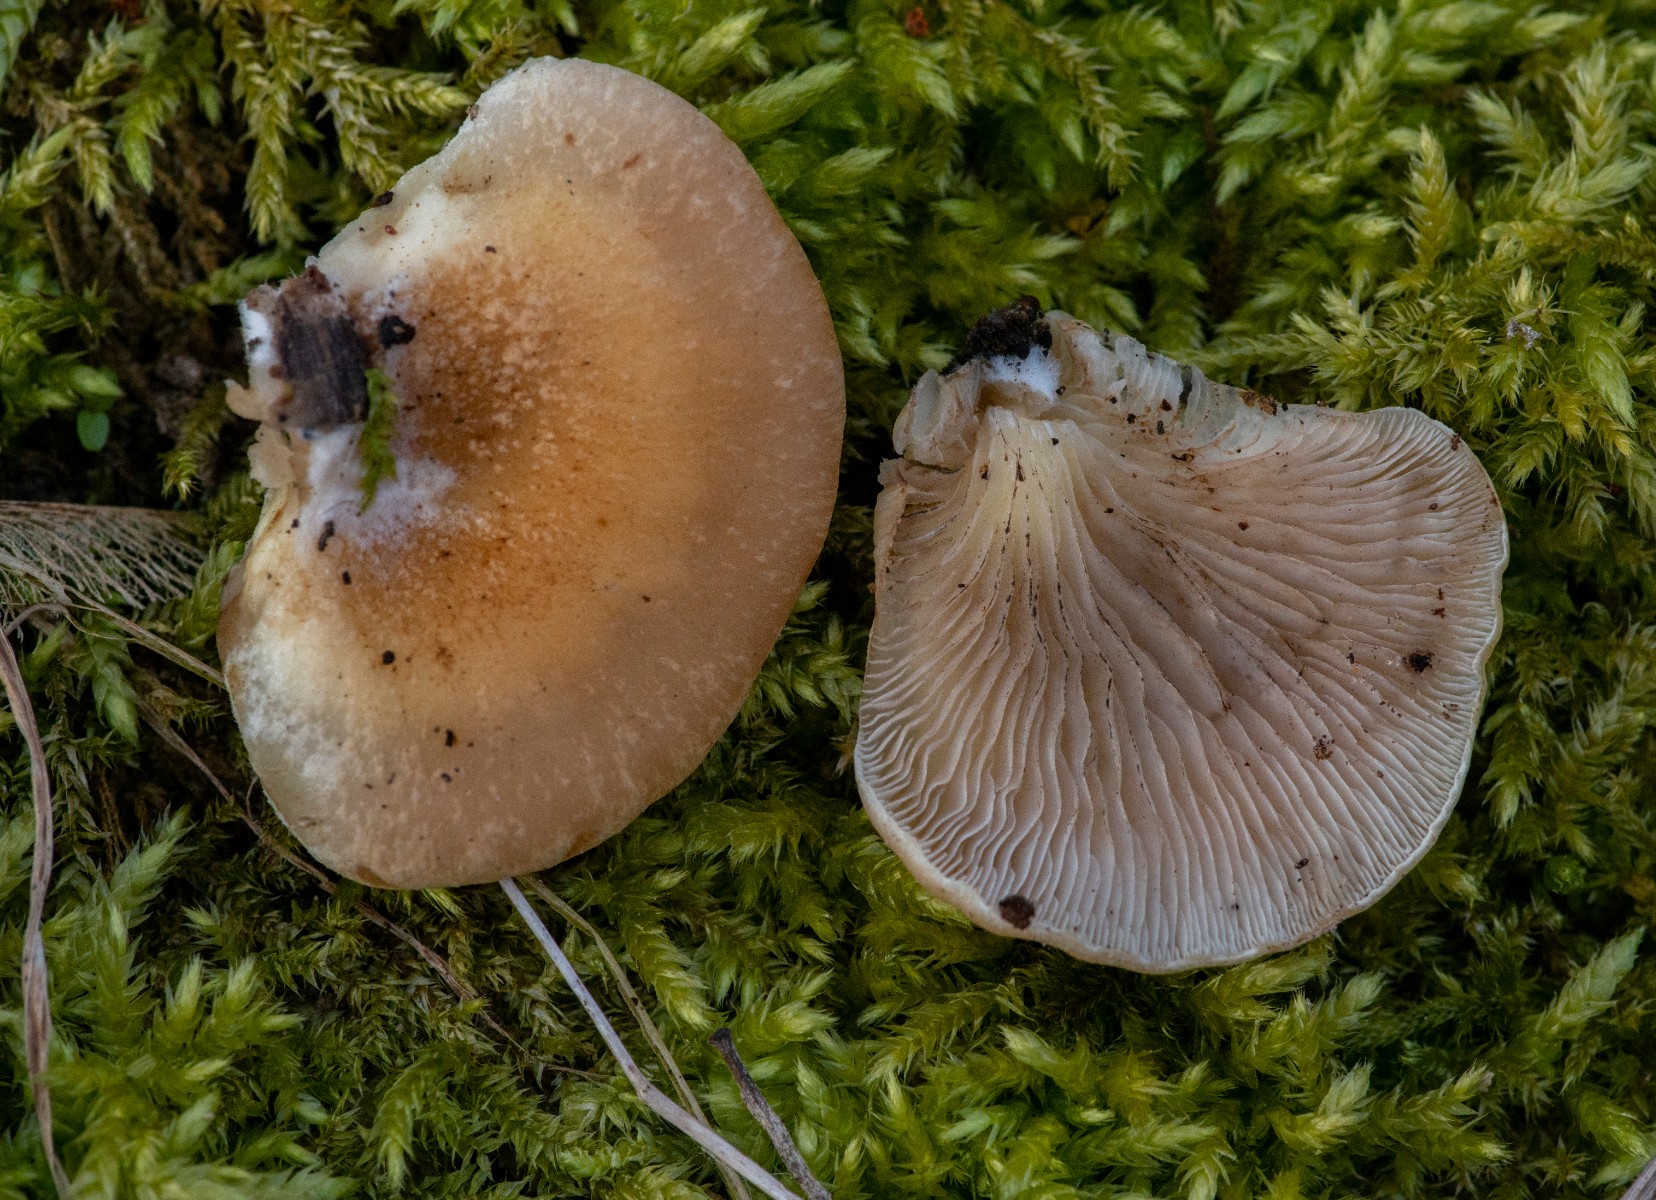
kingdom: Fungi
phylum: Basidiomycota
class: Agaricomycetes
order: Agaricales
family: Sarcomyxaceae
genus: Sarcomyxa
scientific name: Sarcomyxa serotina
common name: gummihat
